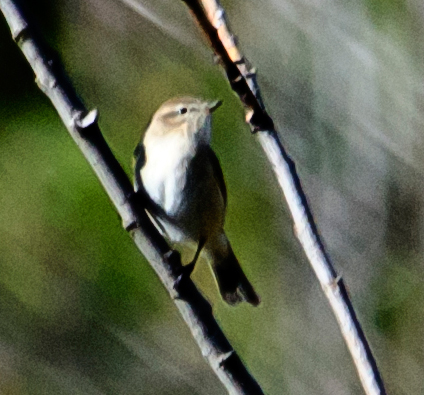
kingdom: Animalia
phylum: Chordata
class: Aves
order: Passeriformes
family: Phylloscopidae
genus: Phylloscopus
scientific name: Phylloscopus collybita
